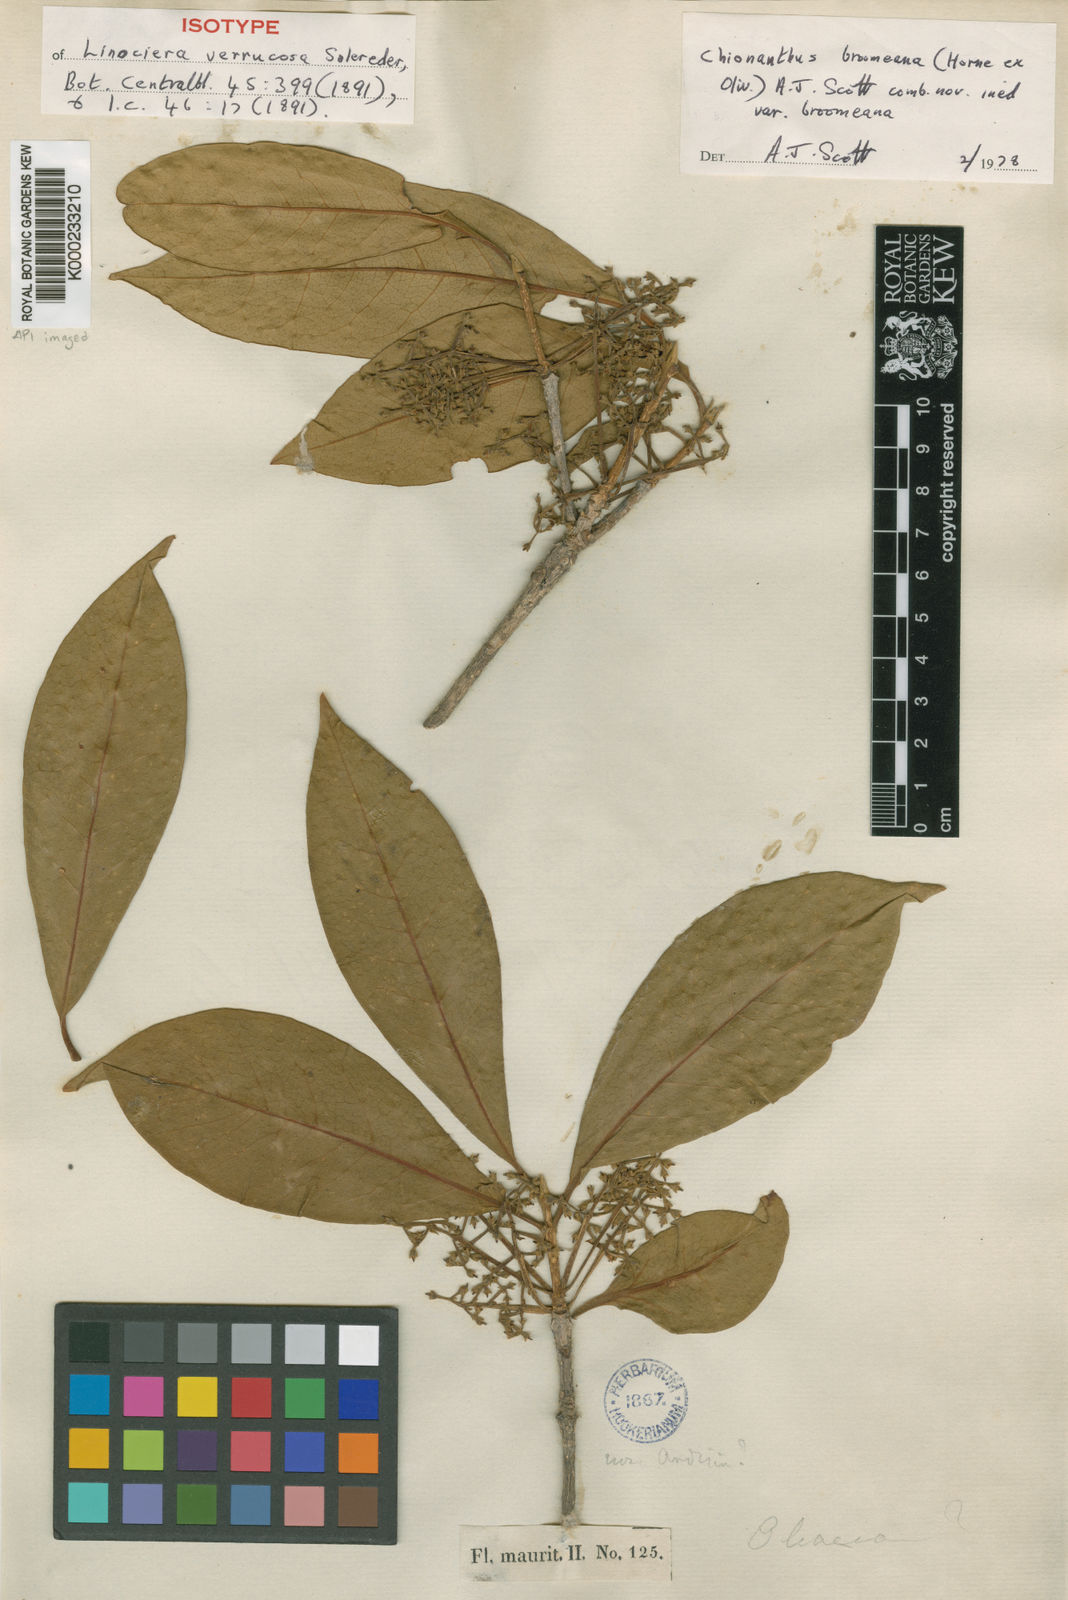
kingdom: Plantae
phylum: Tracheophyta
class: Magnoliopsida
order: Lamiales
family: Oleaceae
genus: Chionanthus
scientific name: Chionanthus
